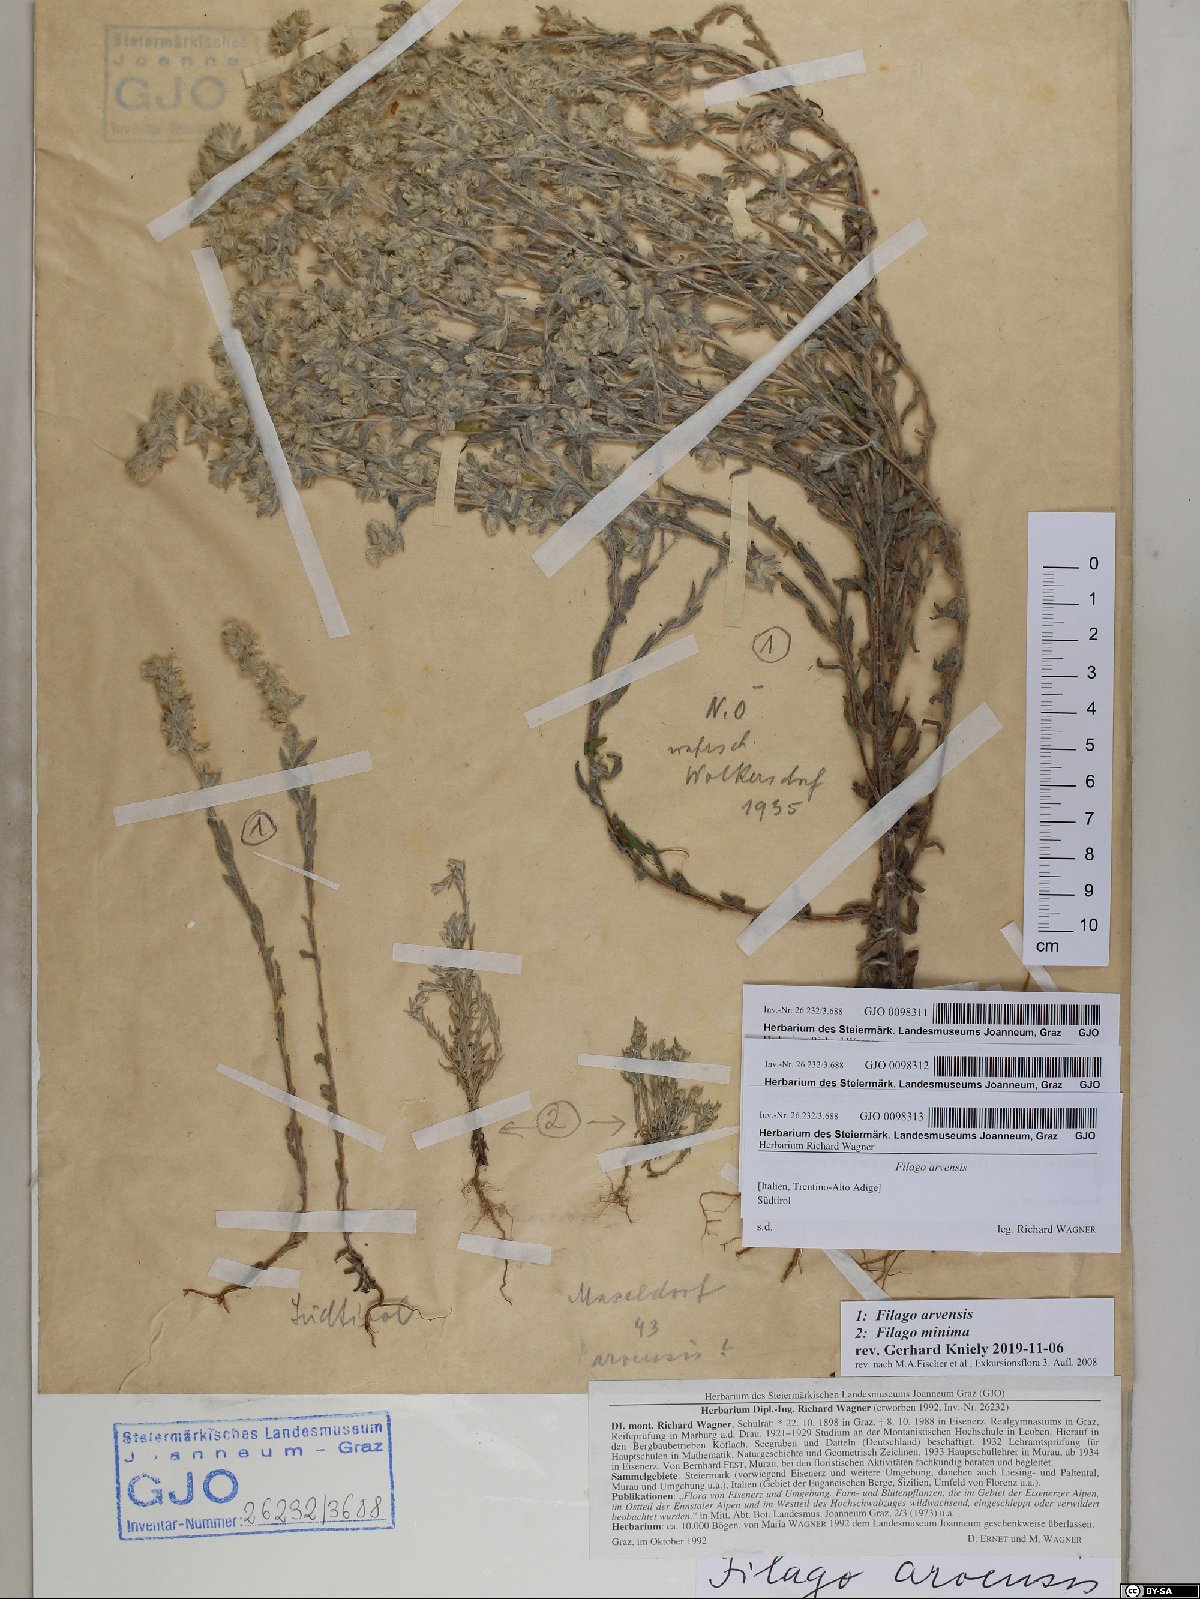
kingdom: Plantae
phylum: Tracheophyta
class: Magnoliopsida
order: Asterales
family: Asteraceae
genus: Filago
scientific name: Filago arvensis
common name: Field cudweed
